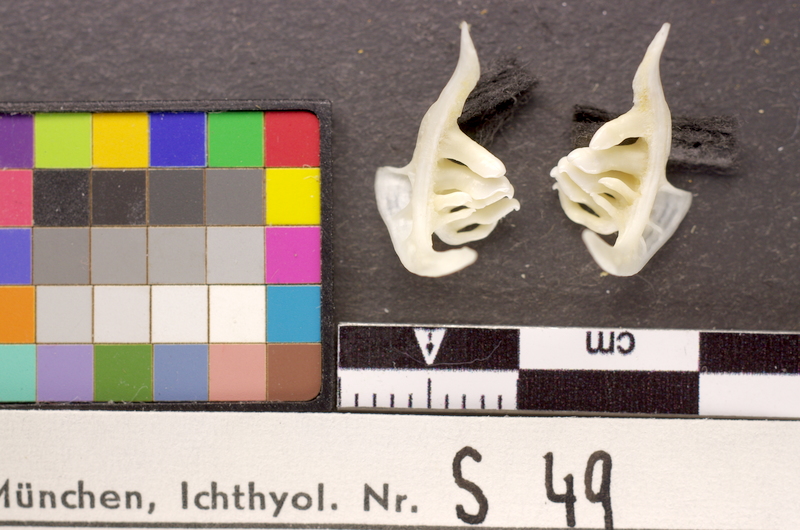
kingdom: Animalia
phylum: Chordata
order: Cypriniformes
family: Cyprinidae
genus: Blicca
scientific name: Blicca bjoerkna
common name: White bream
